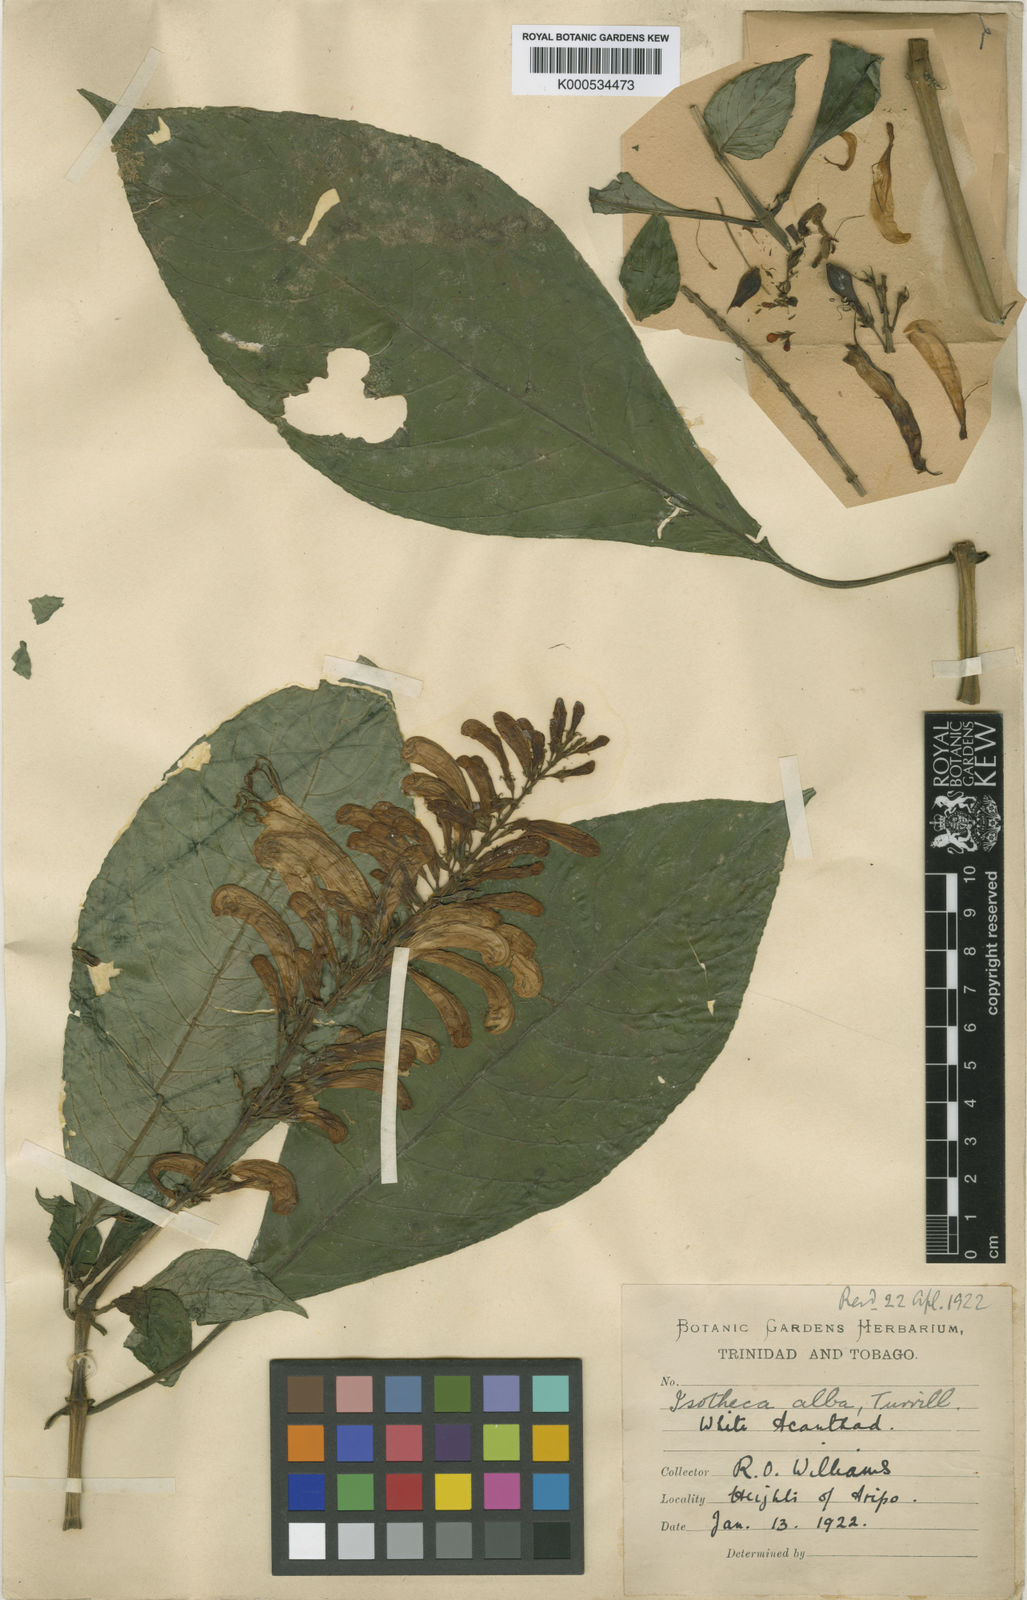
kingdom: Plantae
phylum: Tracheophyta
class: Magnoliopsida
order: Lamiales
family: Acanthaceae
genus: Isotheca
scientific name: Isotheca alba
